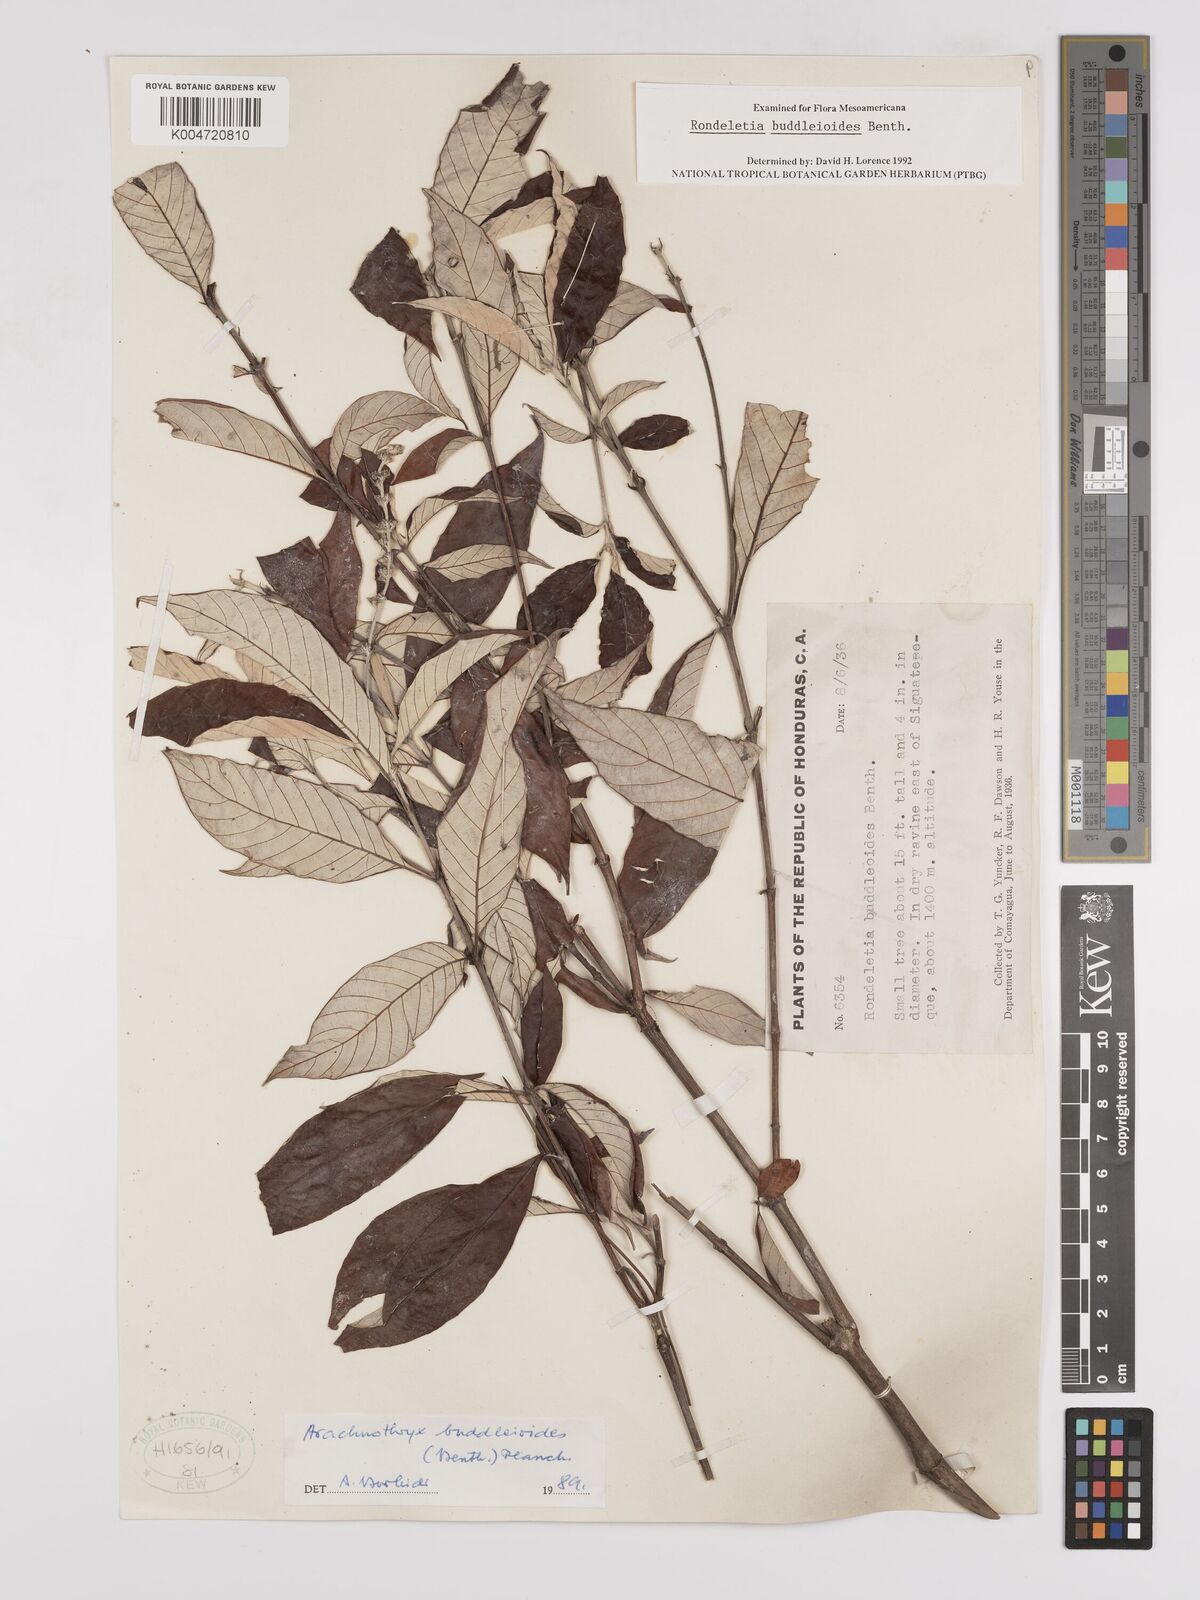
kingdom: Plantae
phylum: Tracheophyta
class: Magnoliopsida
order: Gentianales
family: Rubiaceae
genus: Arachnothryx
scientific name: Arachnothryx buddleioides
